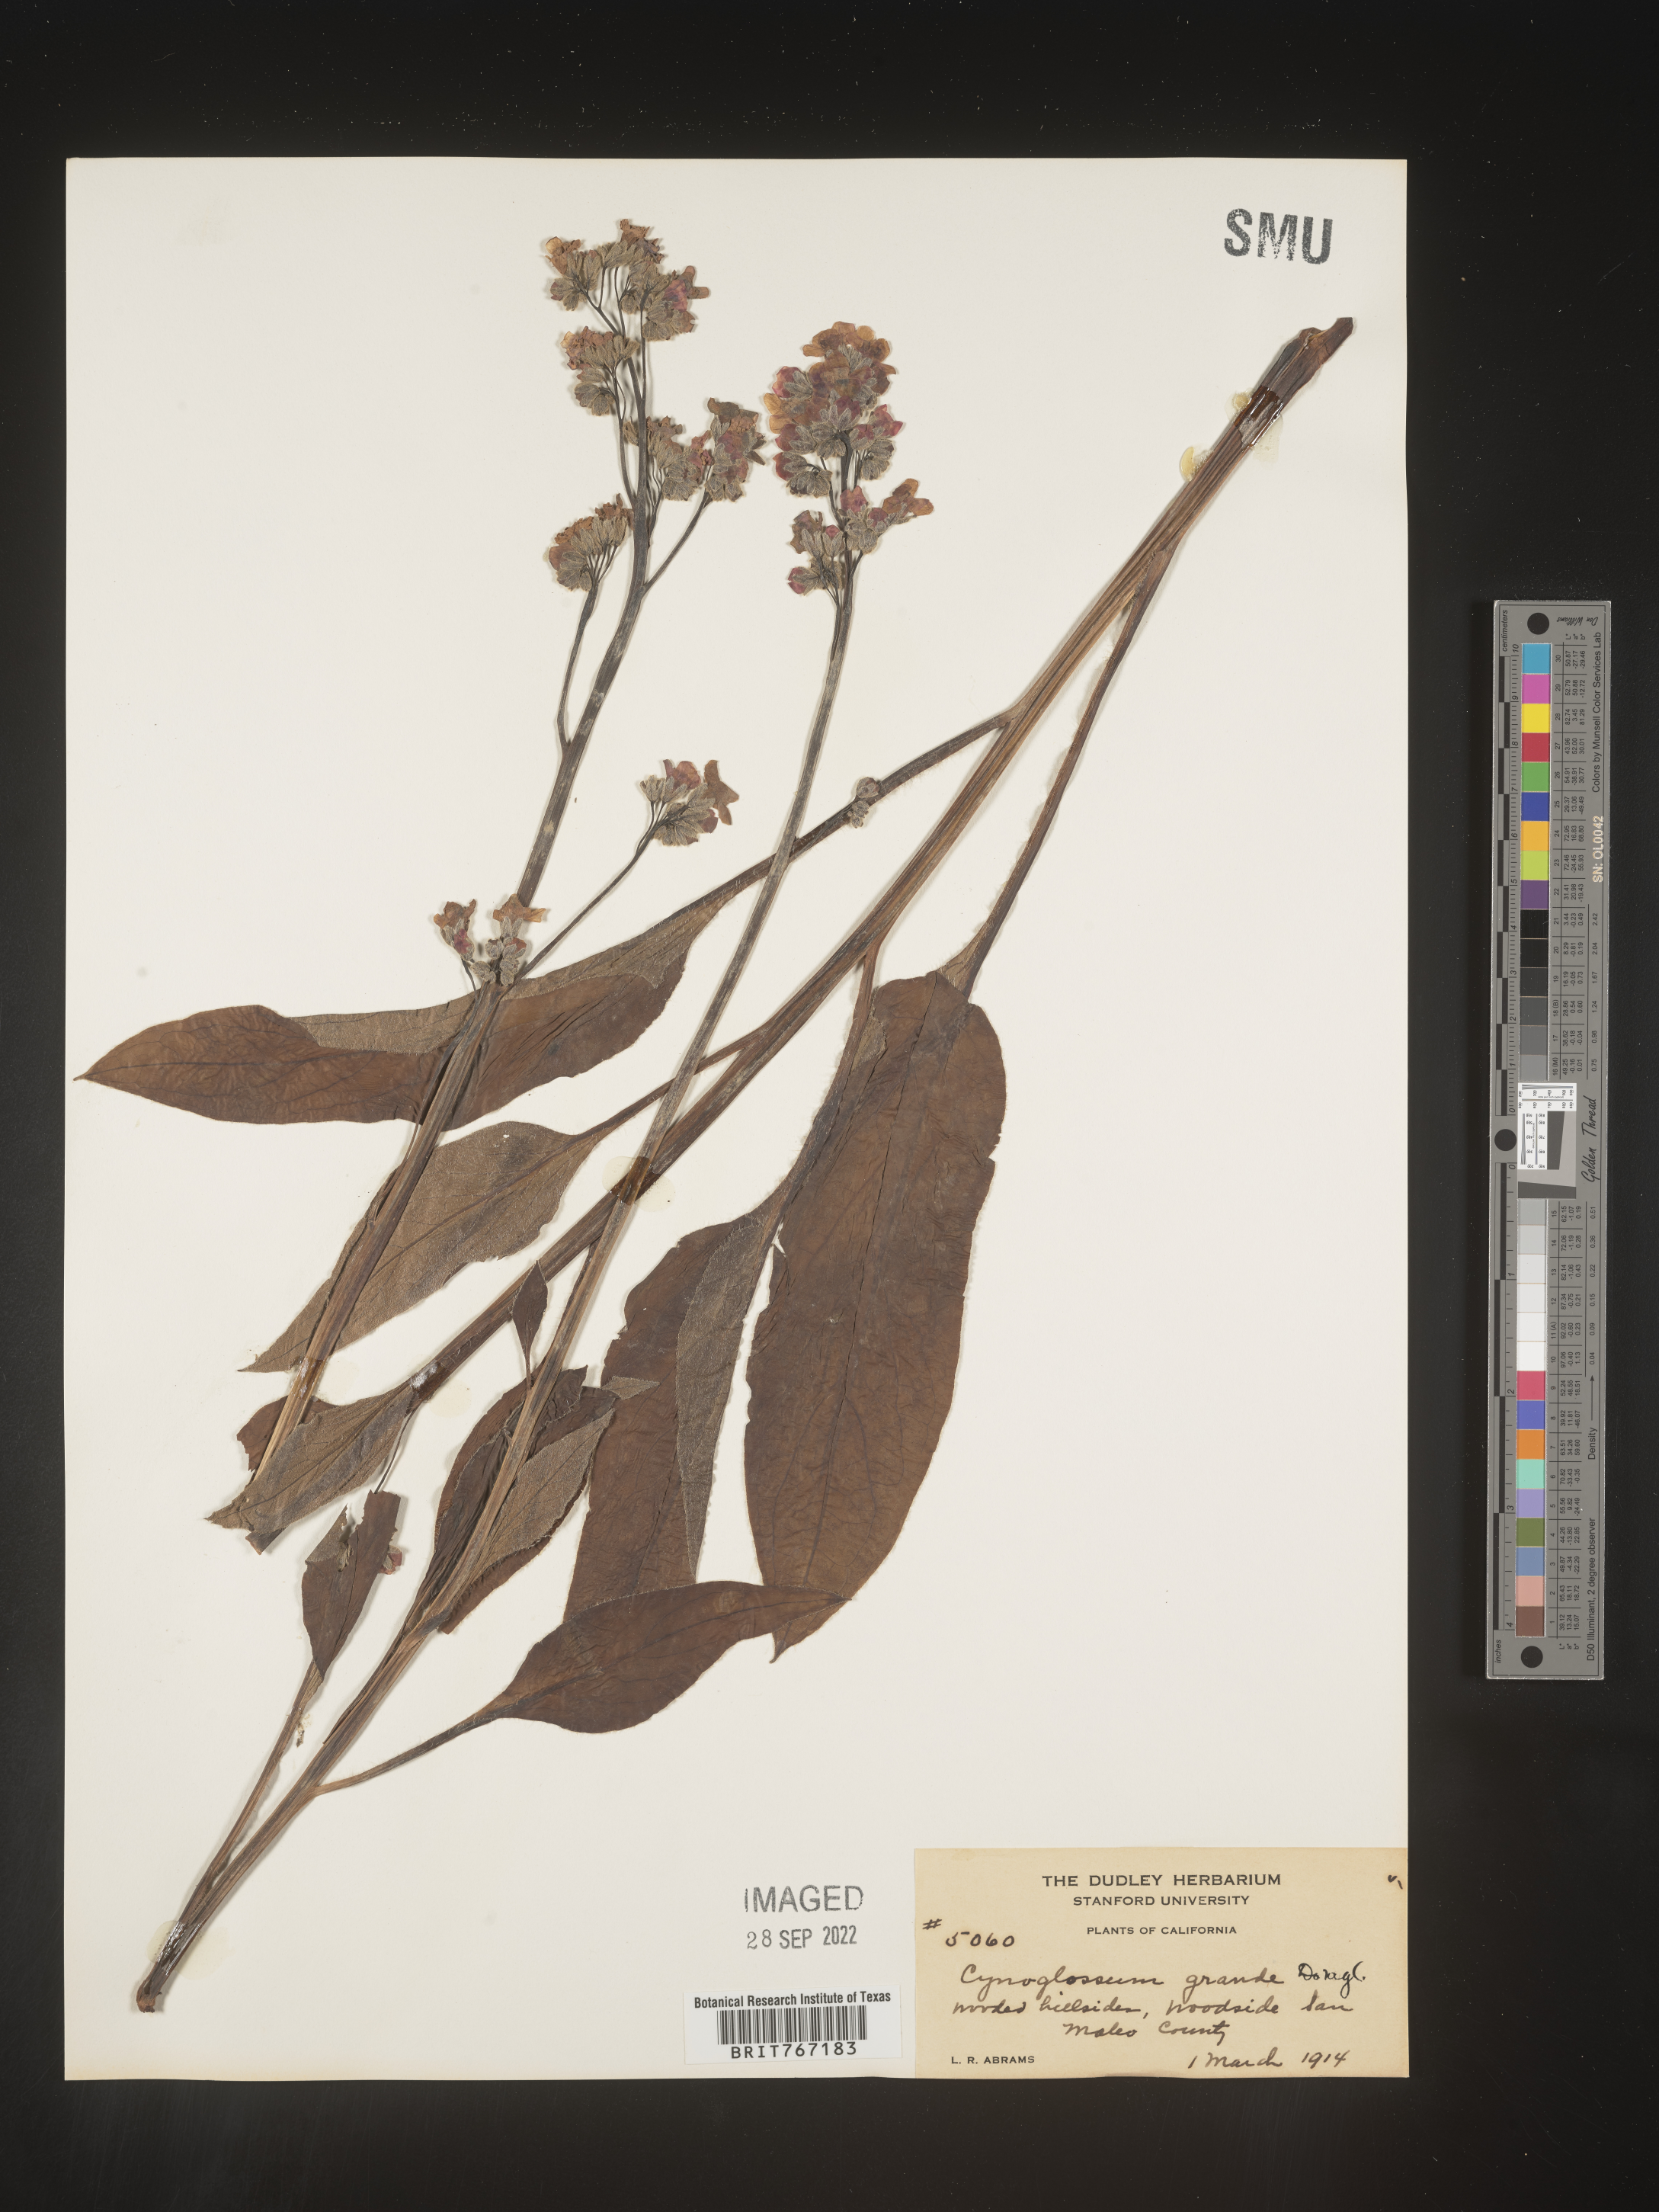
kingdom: Plantae
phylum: Tracheophyta
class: Magnoliopsida
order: Boraginales
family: Boraginaceae
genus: Cynoglossum
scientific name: Cynoglossum
